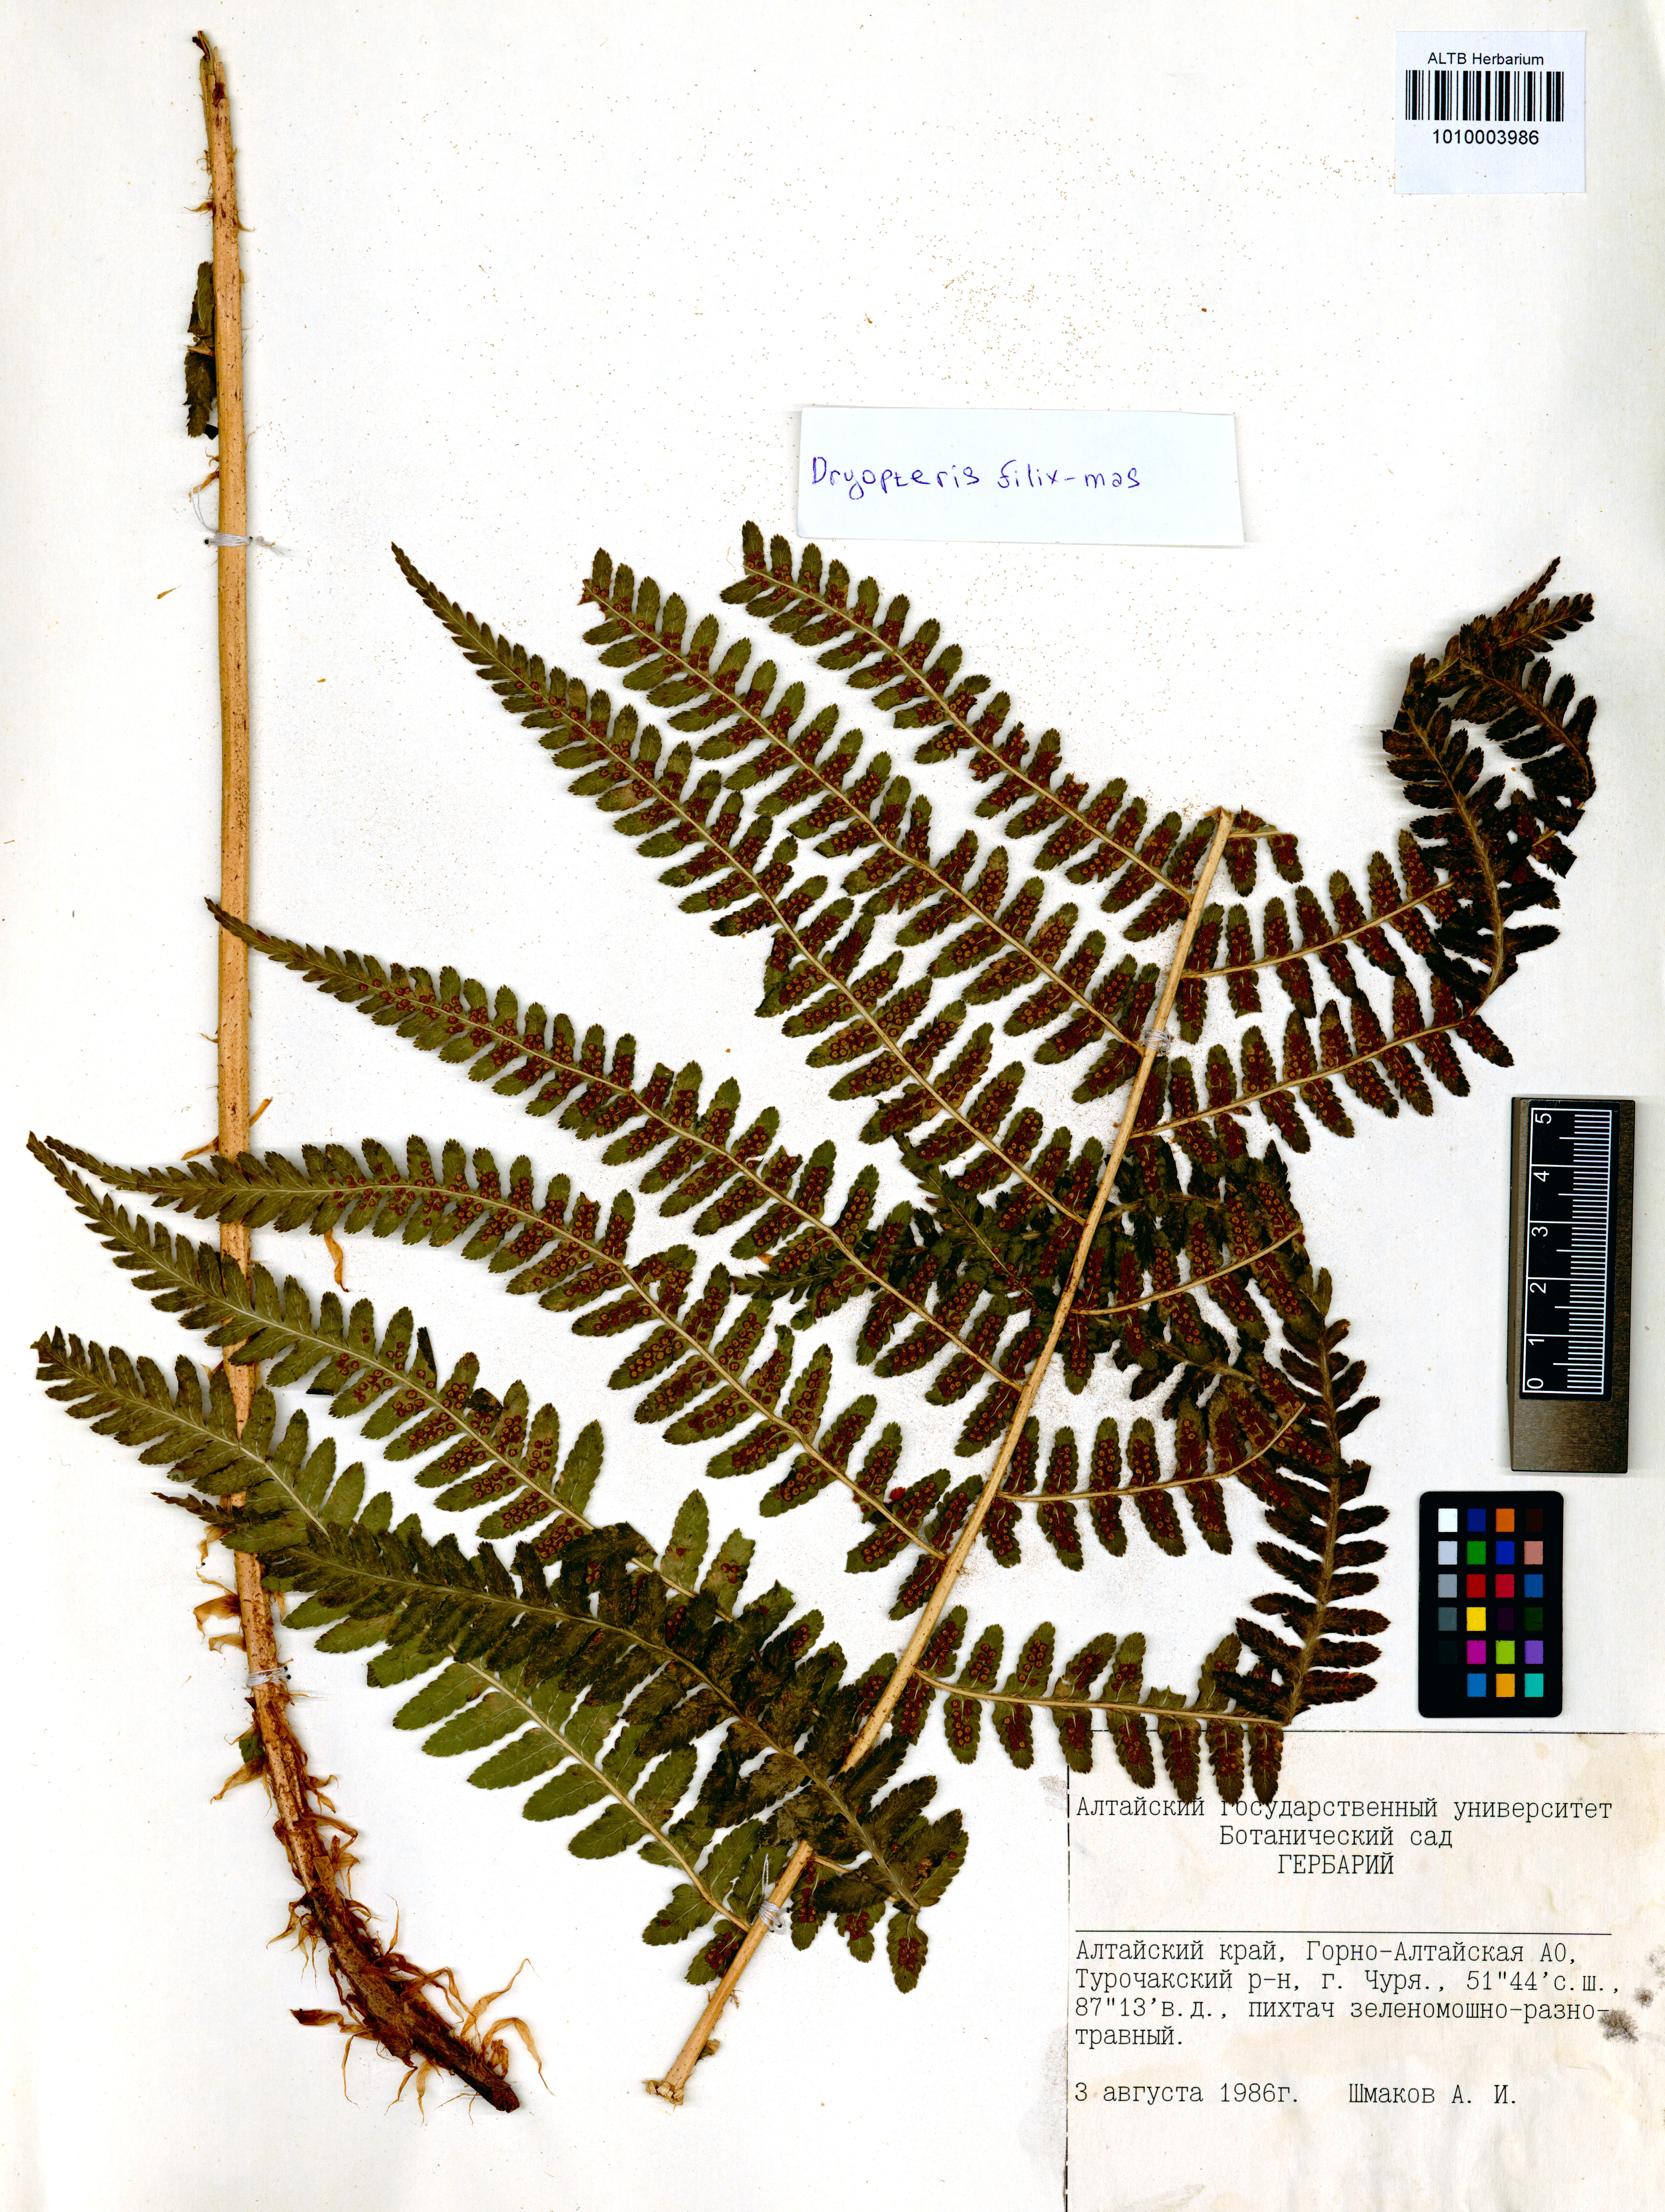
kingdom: Plantae
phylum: Tracheophyta
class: Polypodiopsida
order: Polypodiales
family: Dryopteridaceae
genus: Dryopteris
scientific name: Dryopteris filix-mas
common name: Male fern
